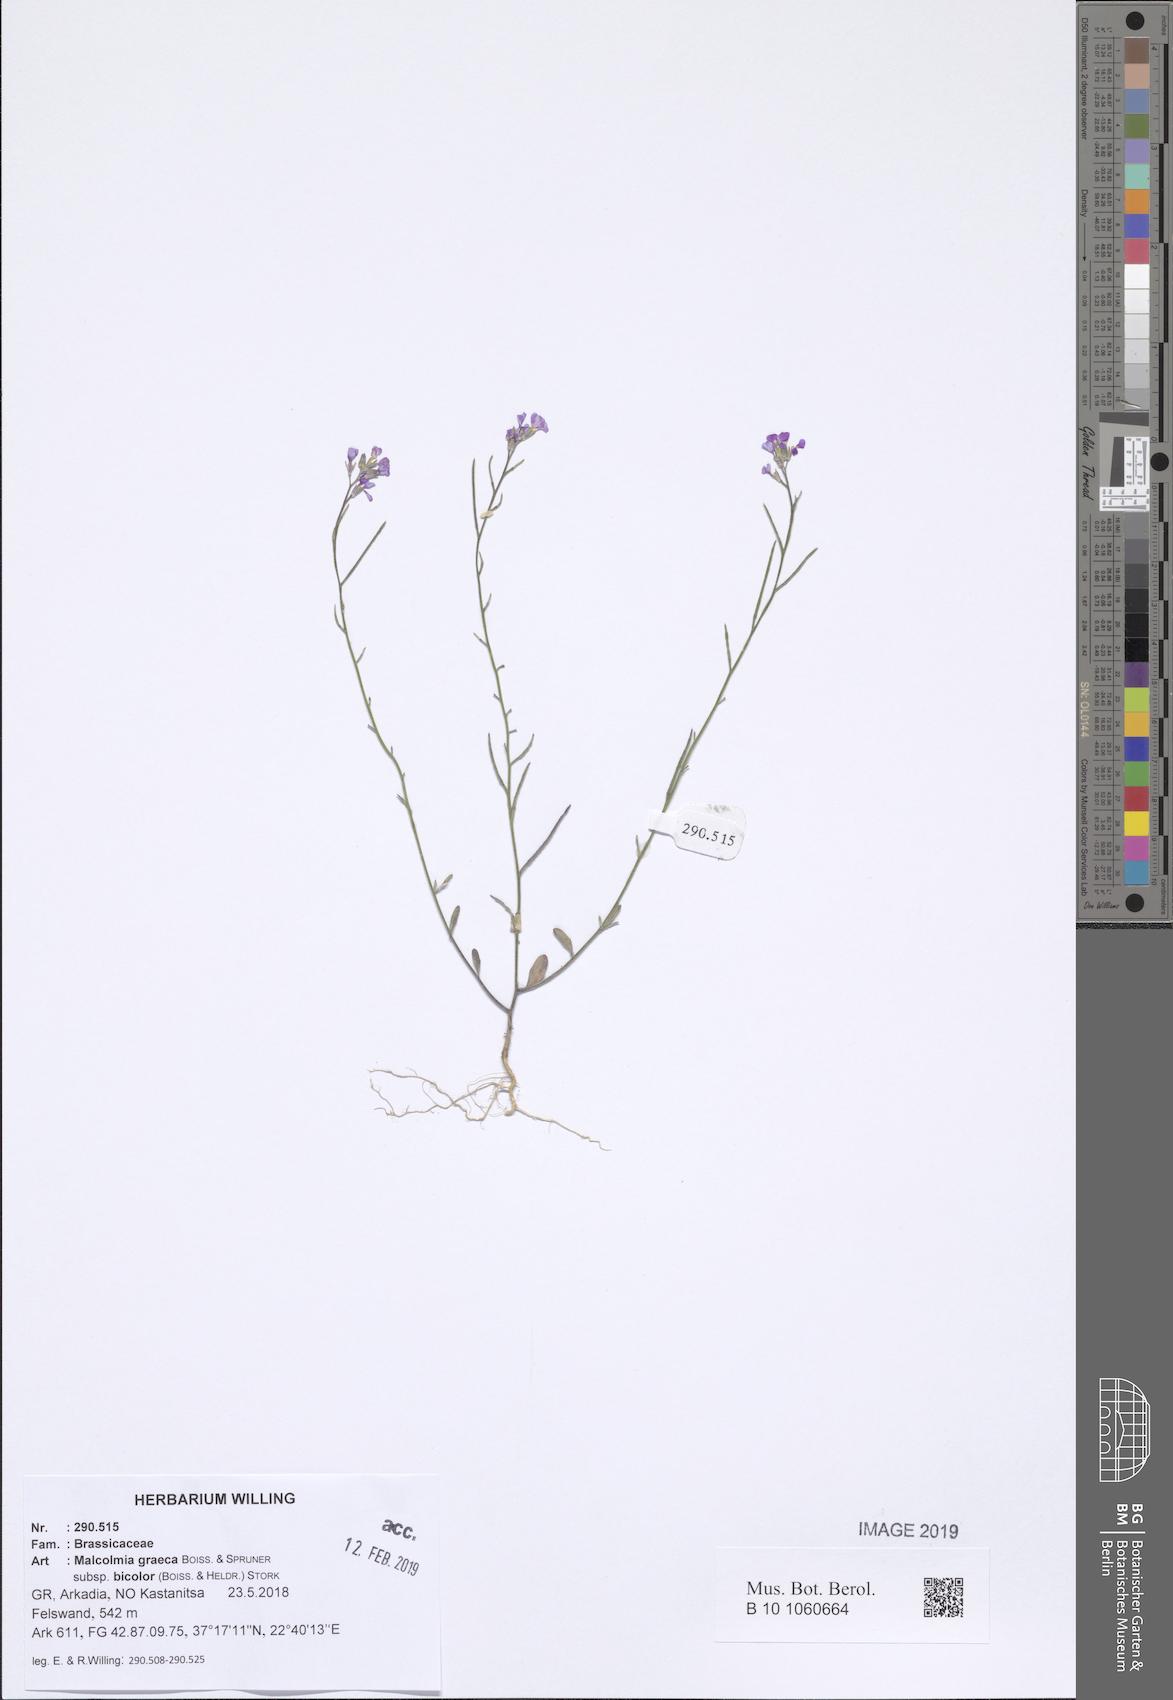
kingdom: Plantae
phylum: Tracheophyta
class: Magnoliopsida
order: Brassicales
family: Brassicaceae
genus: Malcolmia
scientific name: Malcolmia graeca
